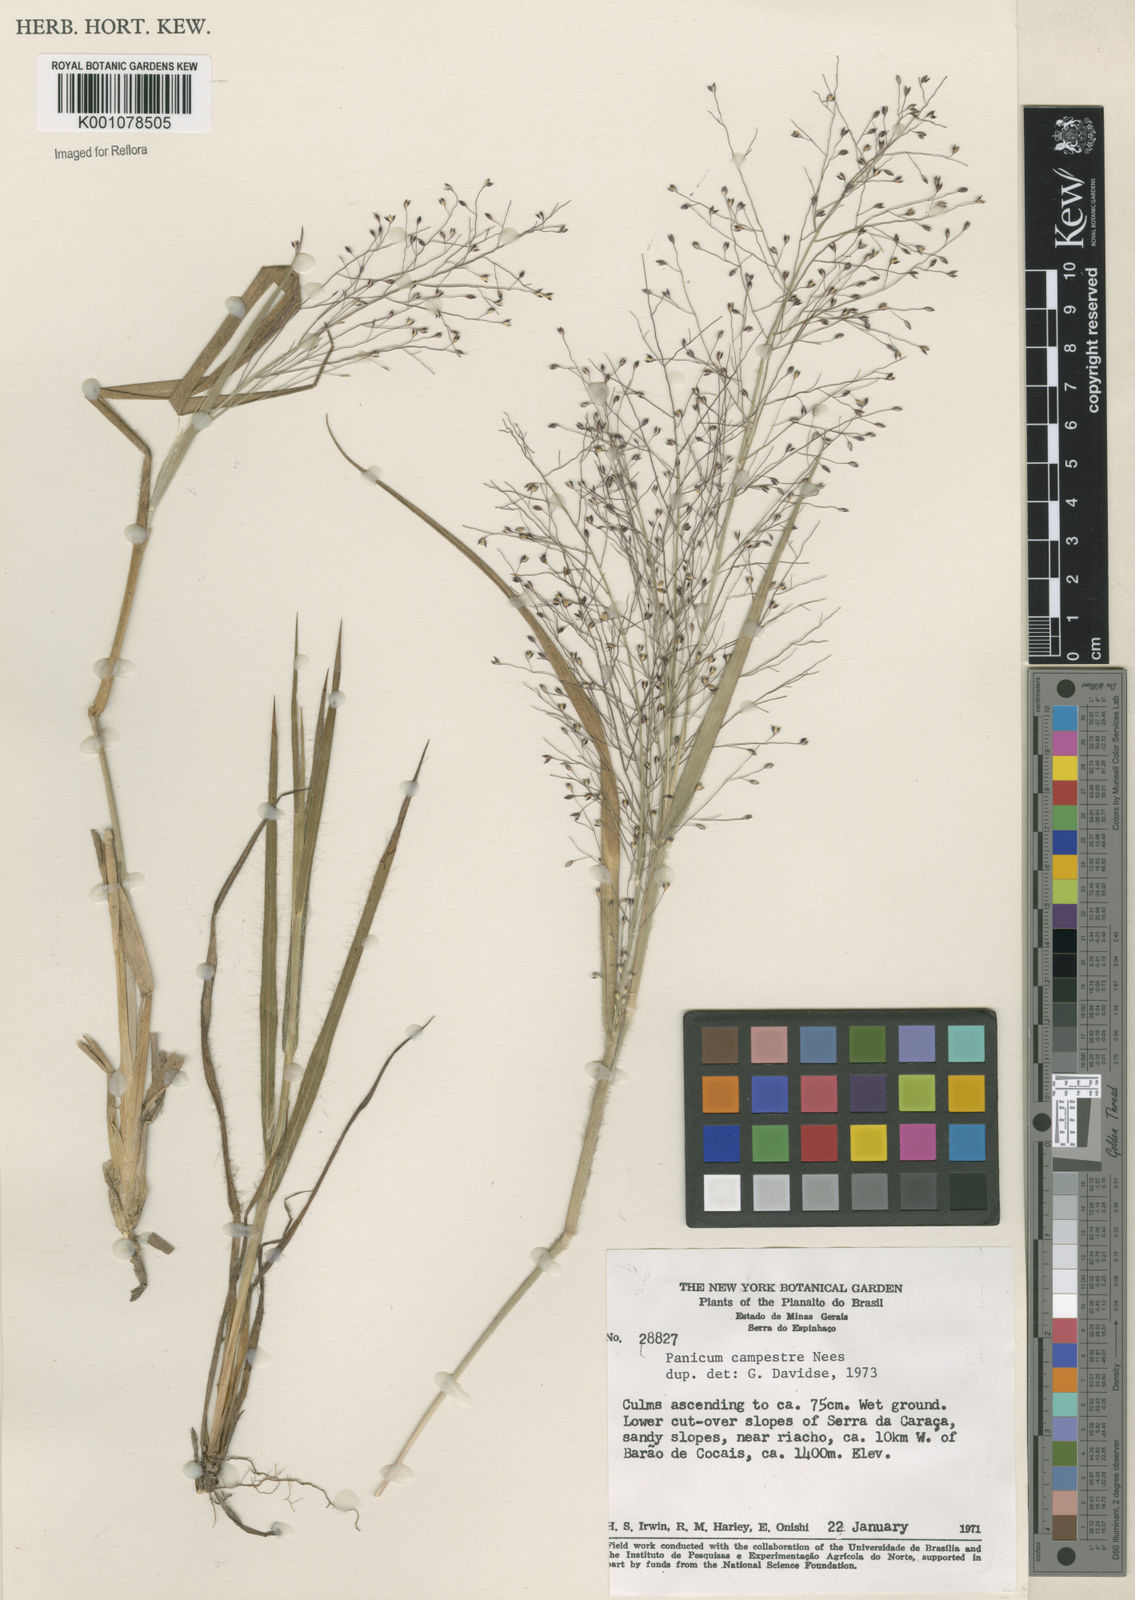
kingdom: Plantae
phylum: Tracheophyta
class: Liliopsida
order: Poales
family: Poaceae
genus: Panicum
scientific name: Panicum campestre
